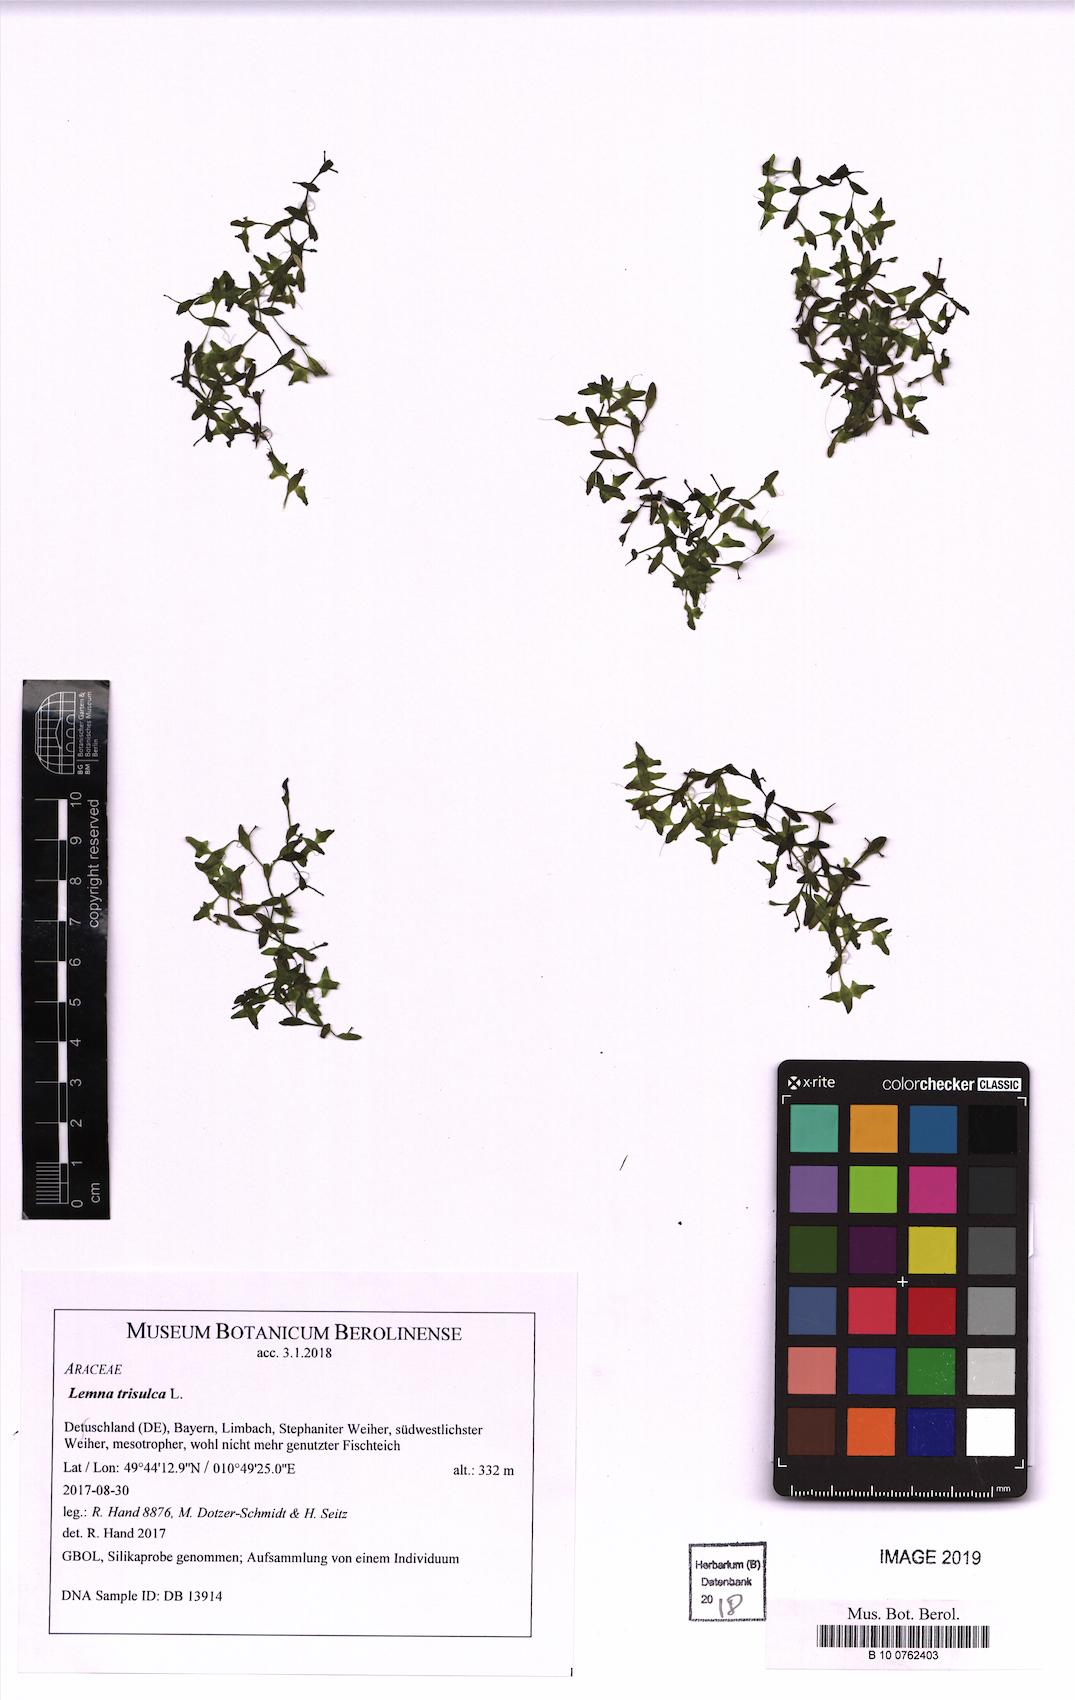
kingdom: Plantae
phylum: Tracheophyta
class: Liliopsida
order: Alismatales
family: Araceae
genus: Lemna
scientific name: Lemna trisulca
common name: Ivy-leaved duckweed
